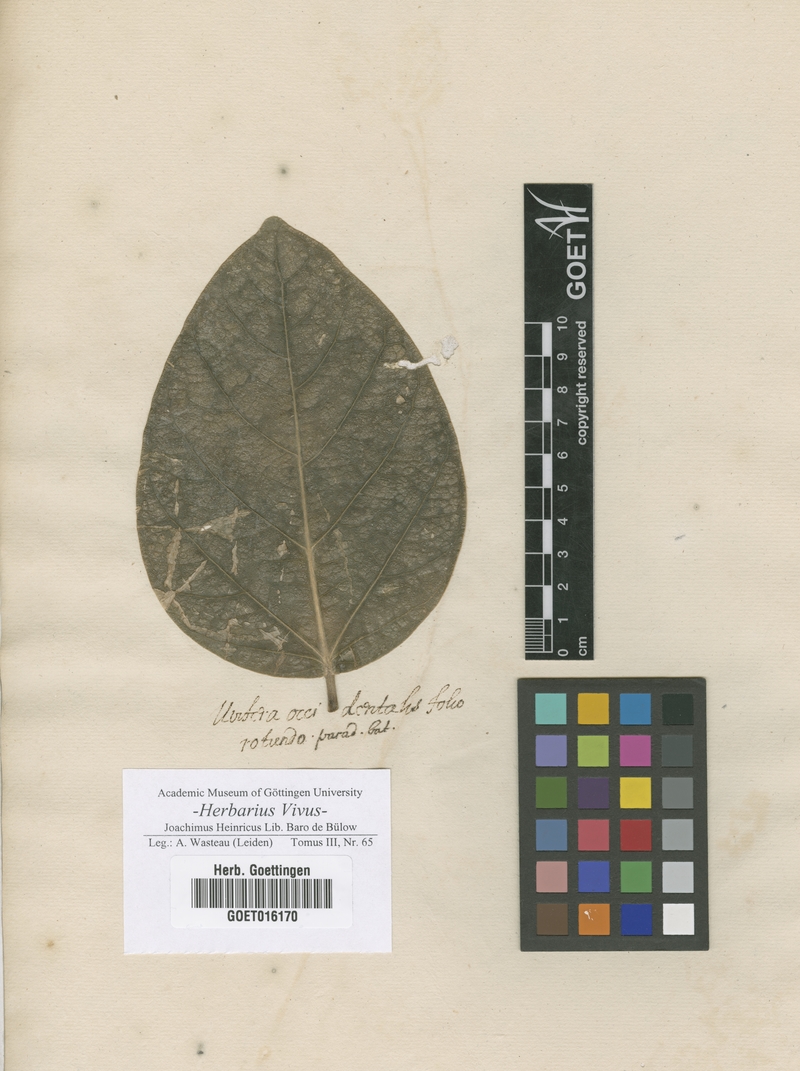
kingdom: Plantae
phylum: Tracheophyta
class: Magnoliopsida
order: Lamiales
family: Oleaceae
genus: Syringa
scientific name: Syringa
